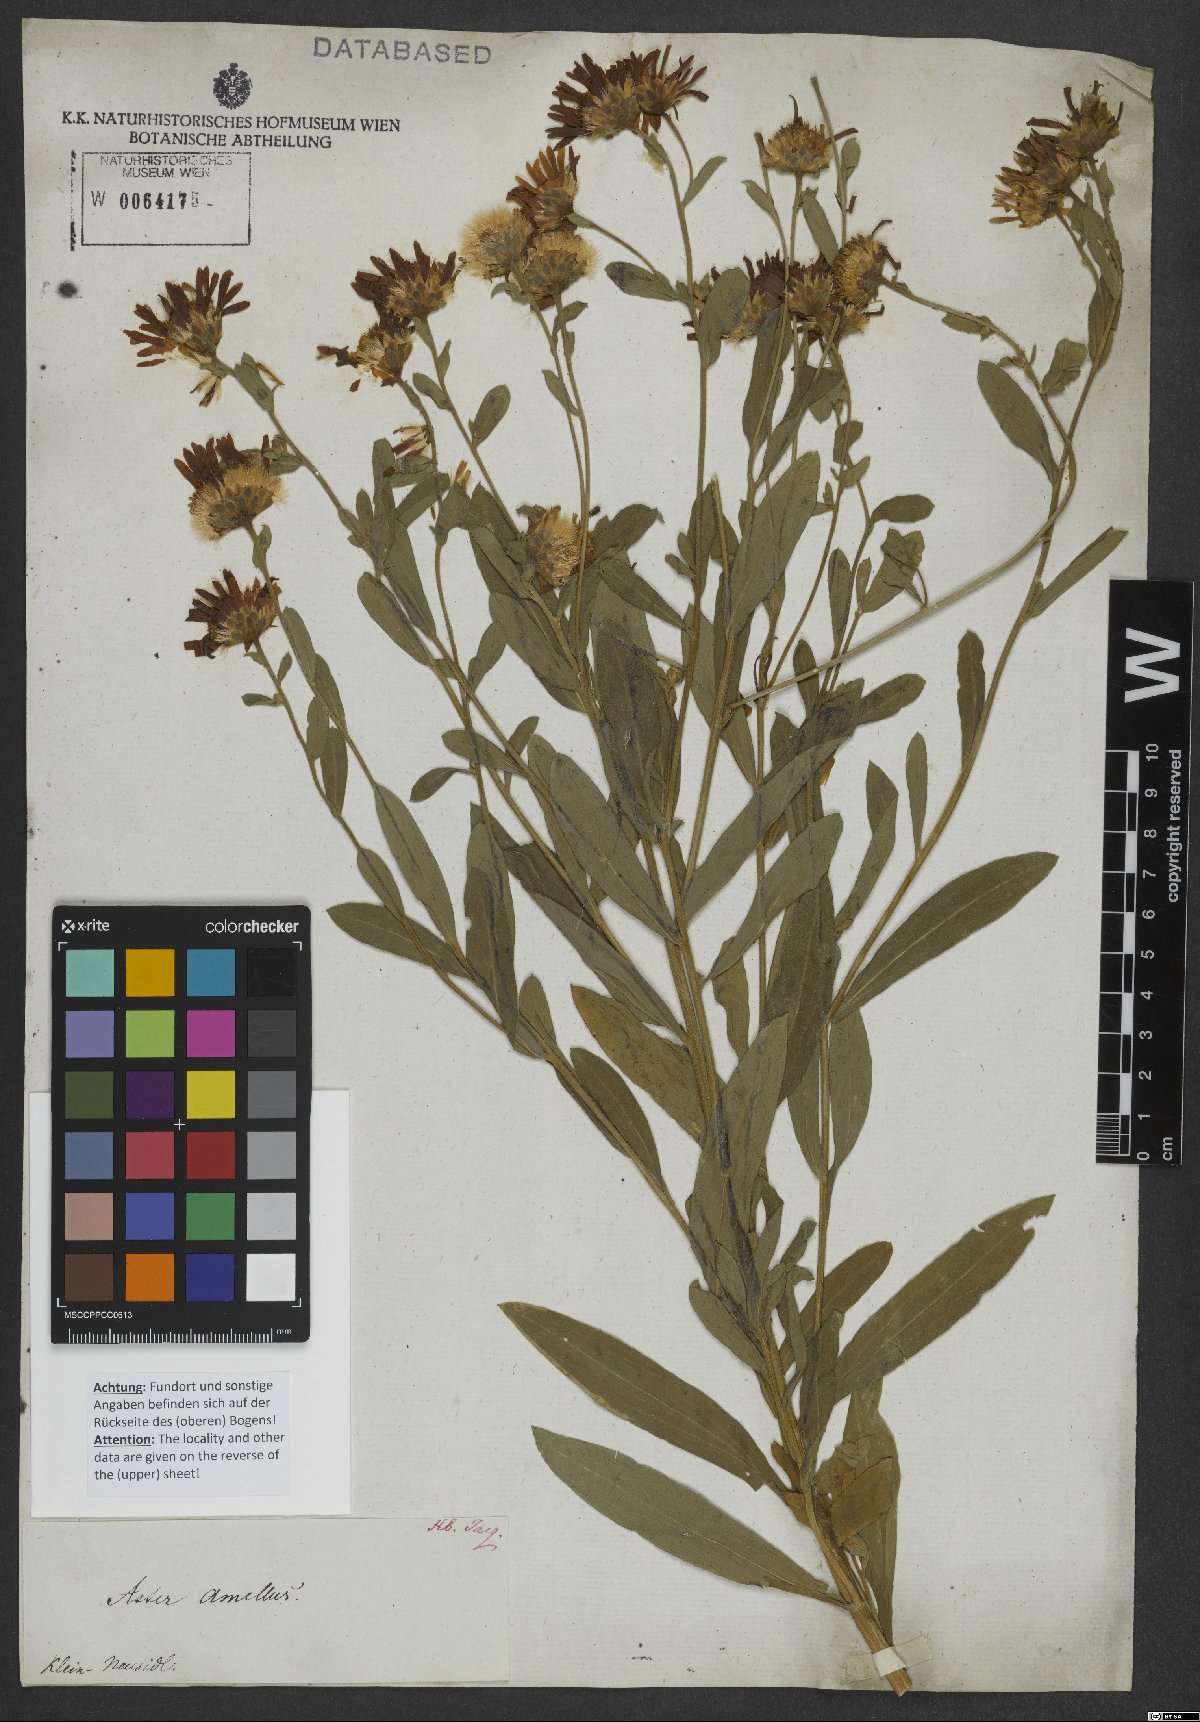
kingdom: Plantae
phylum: Tracheophyta
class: Magnoliopsida
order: Asterales
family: Asteraceae
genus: Aster
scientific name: Aster amellus
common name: European michaelmas daisy
